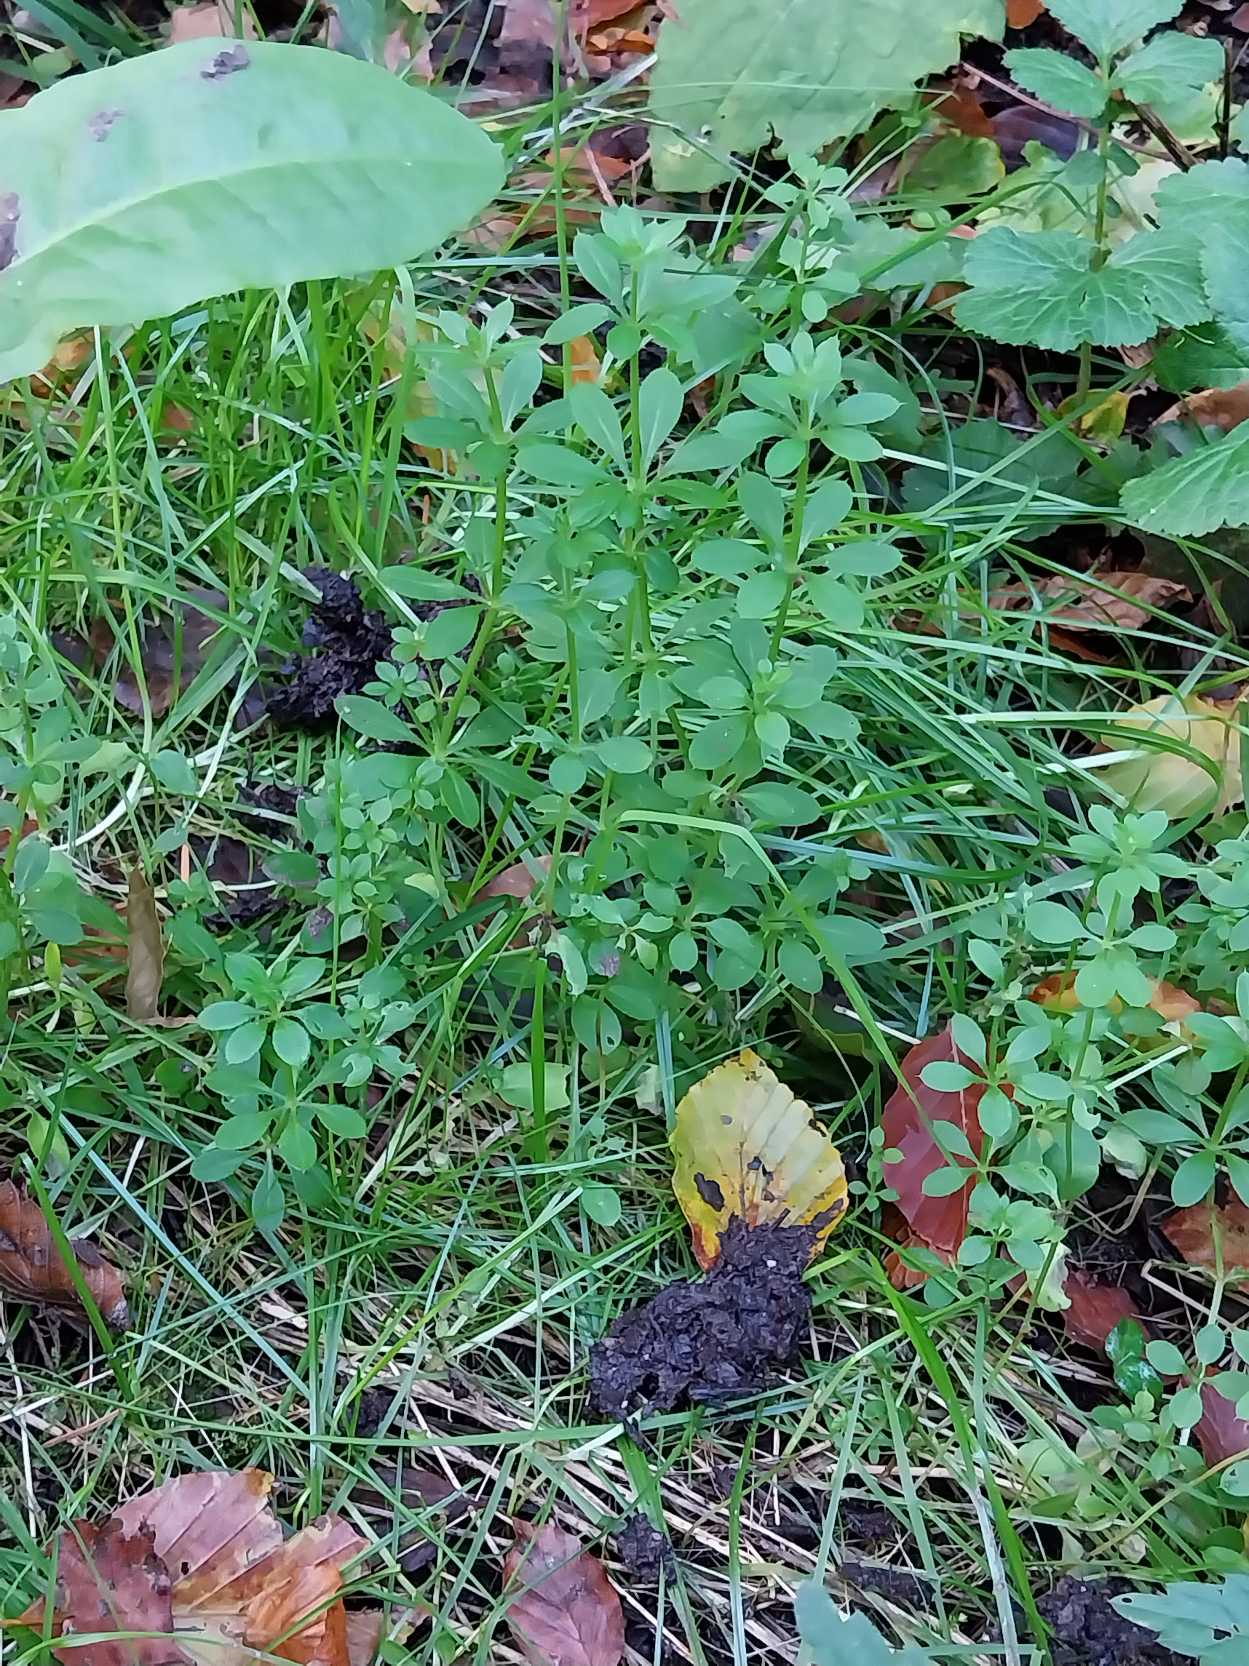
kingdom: Plantae
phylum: Tracheophyta
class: Magnoliopsida
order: Gentianales
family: Rubiaceae
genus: Galium
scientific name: Galium aparine
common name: Burre-snerre
